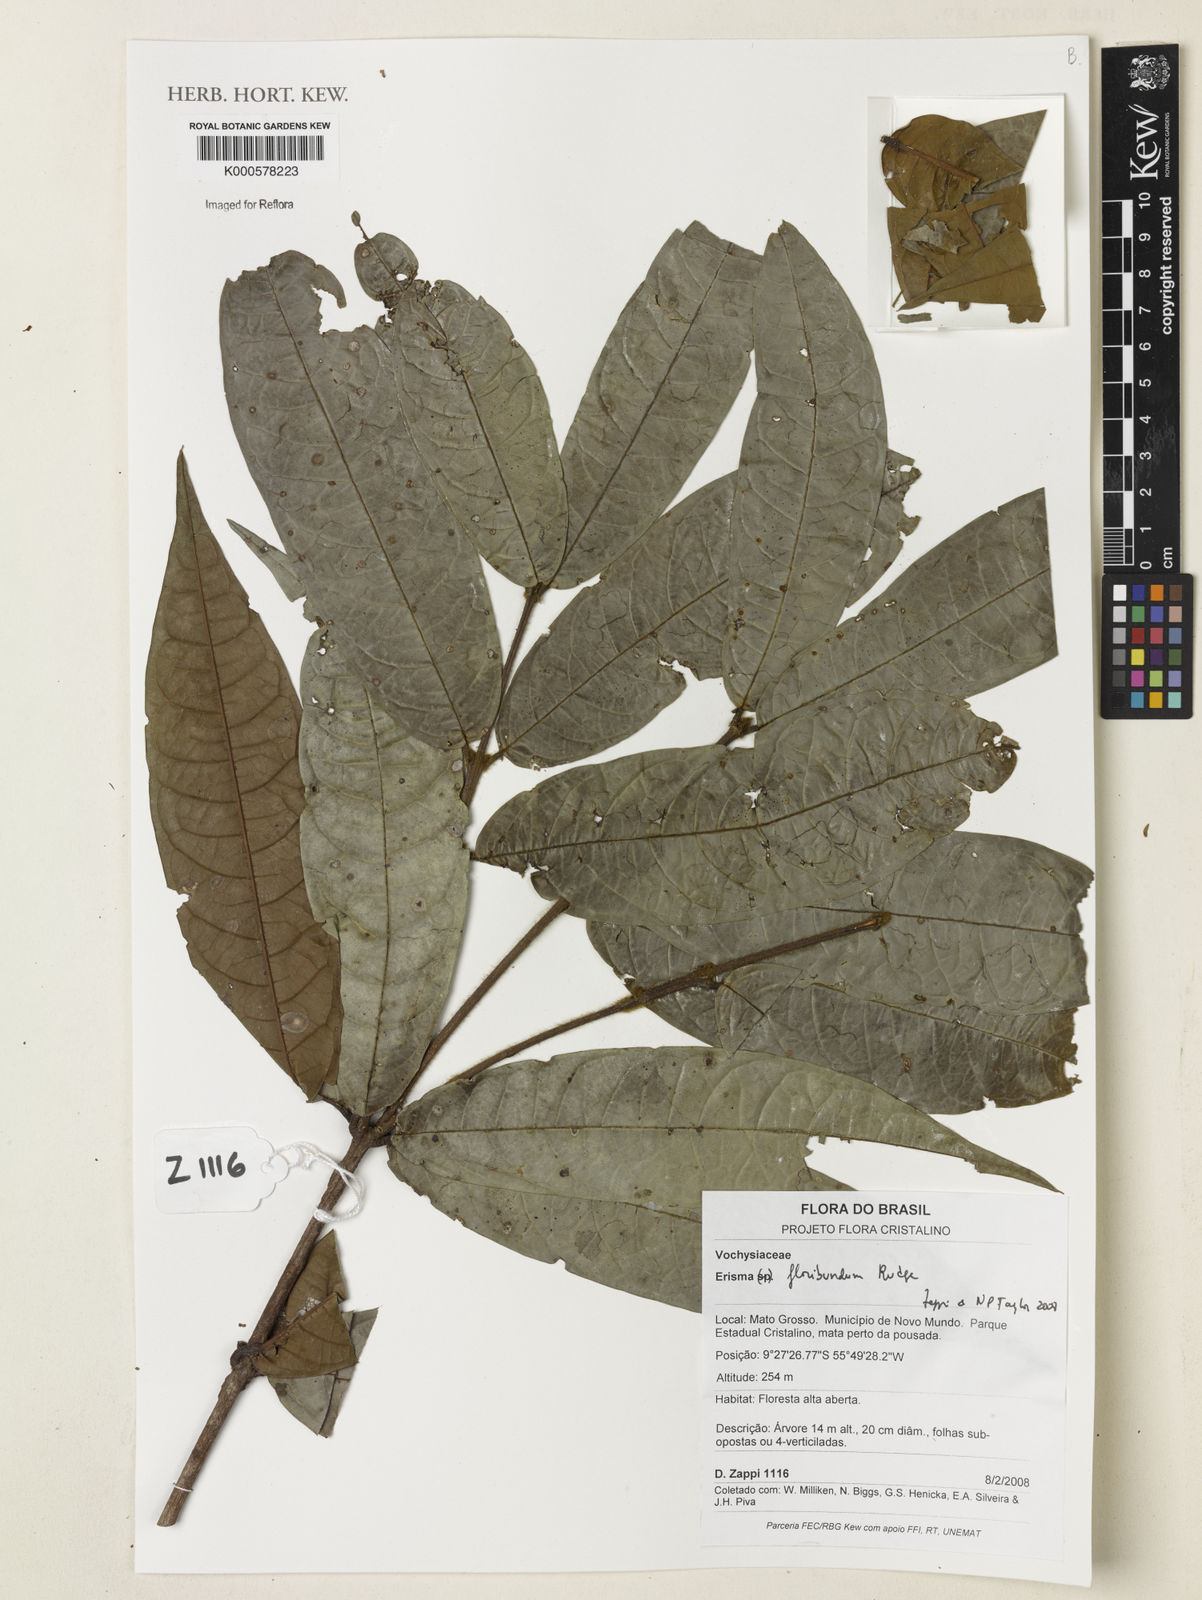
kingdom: Plantae
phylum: Tracheophyta
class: Magnoliopsida
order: Myrtales
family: Vochysiaceae
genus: Erisma
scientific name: Erisma floribundum
